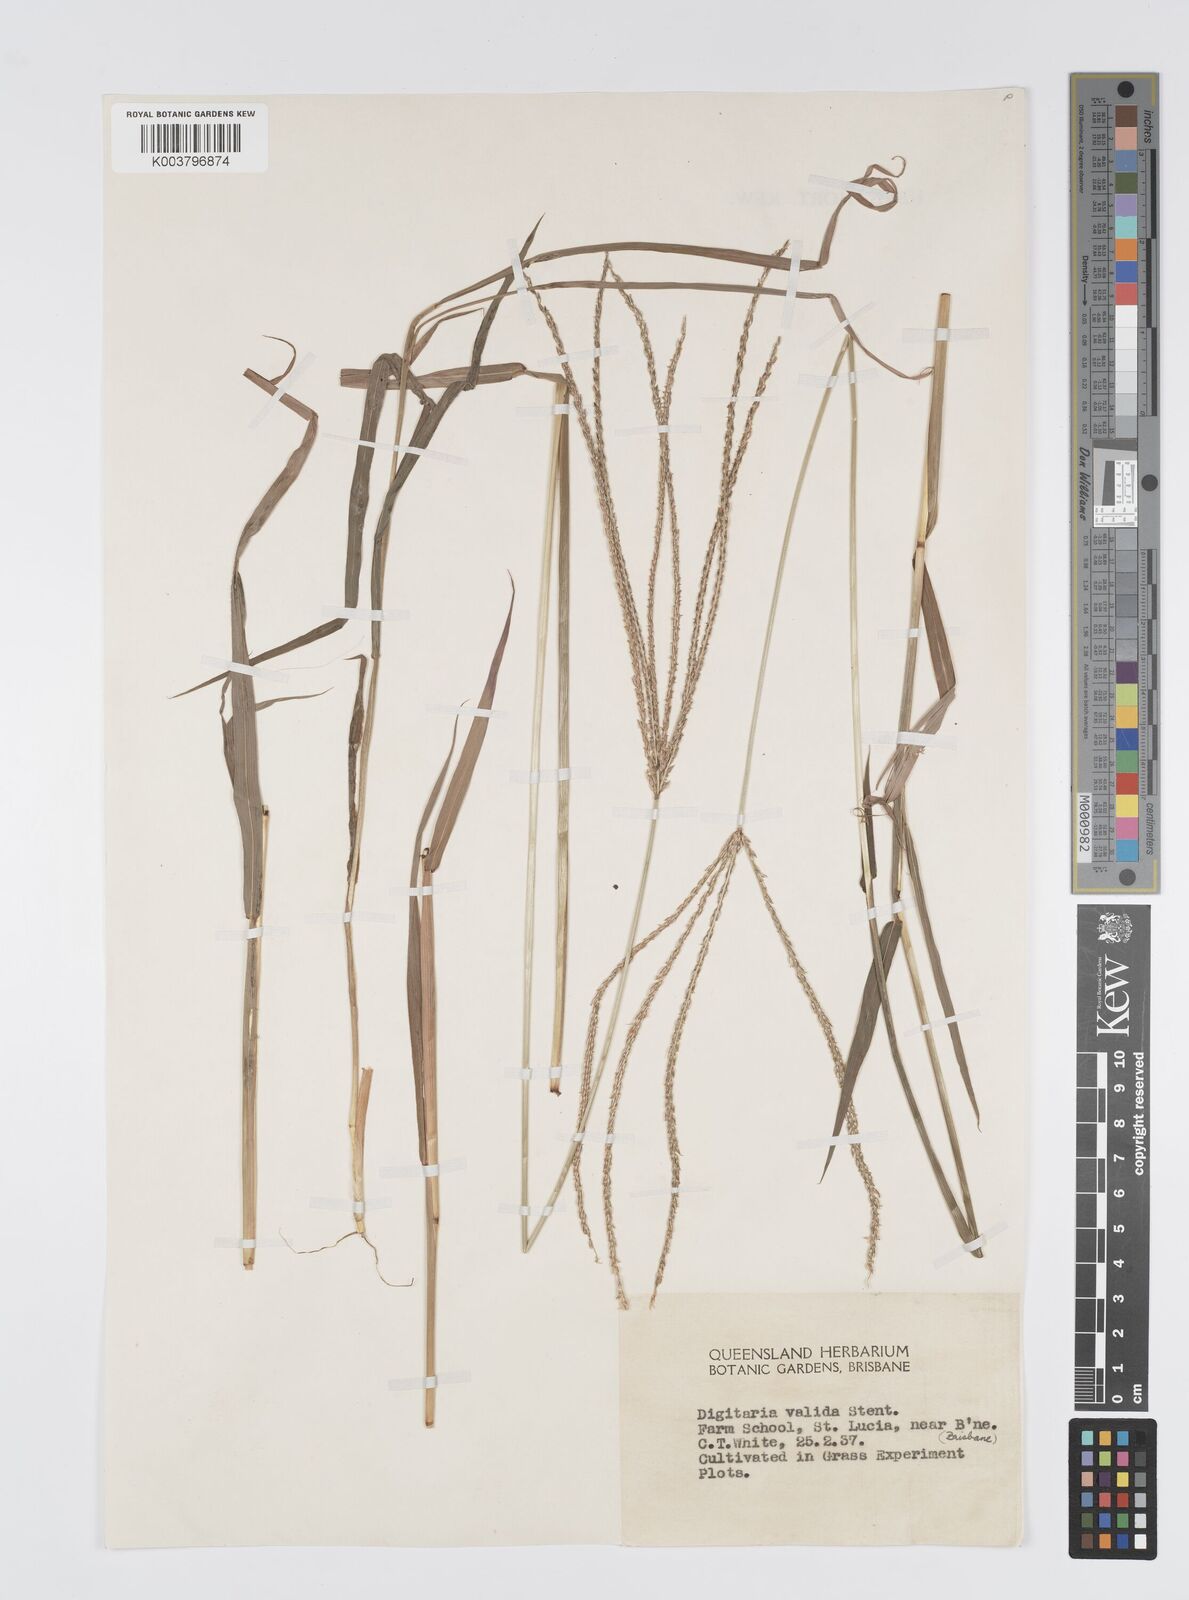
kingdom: Plantae
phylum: Tracheophyta
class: Liliopsida
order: Poales
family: Poaceae
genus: Digitaria
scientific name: Digitaria eriantha
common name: Digitgrass
